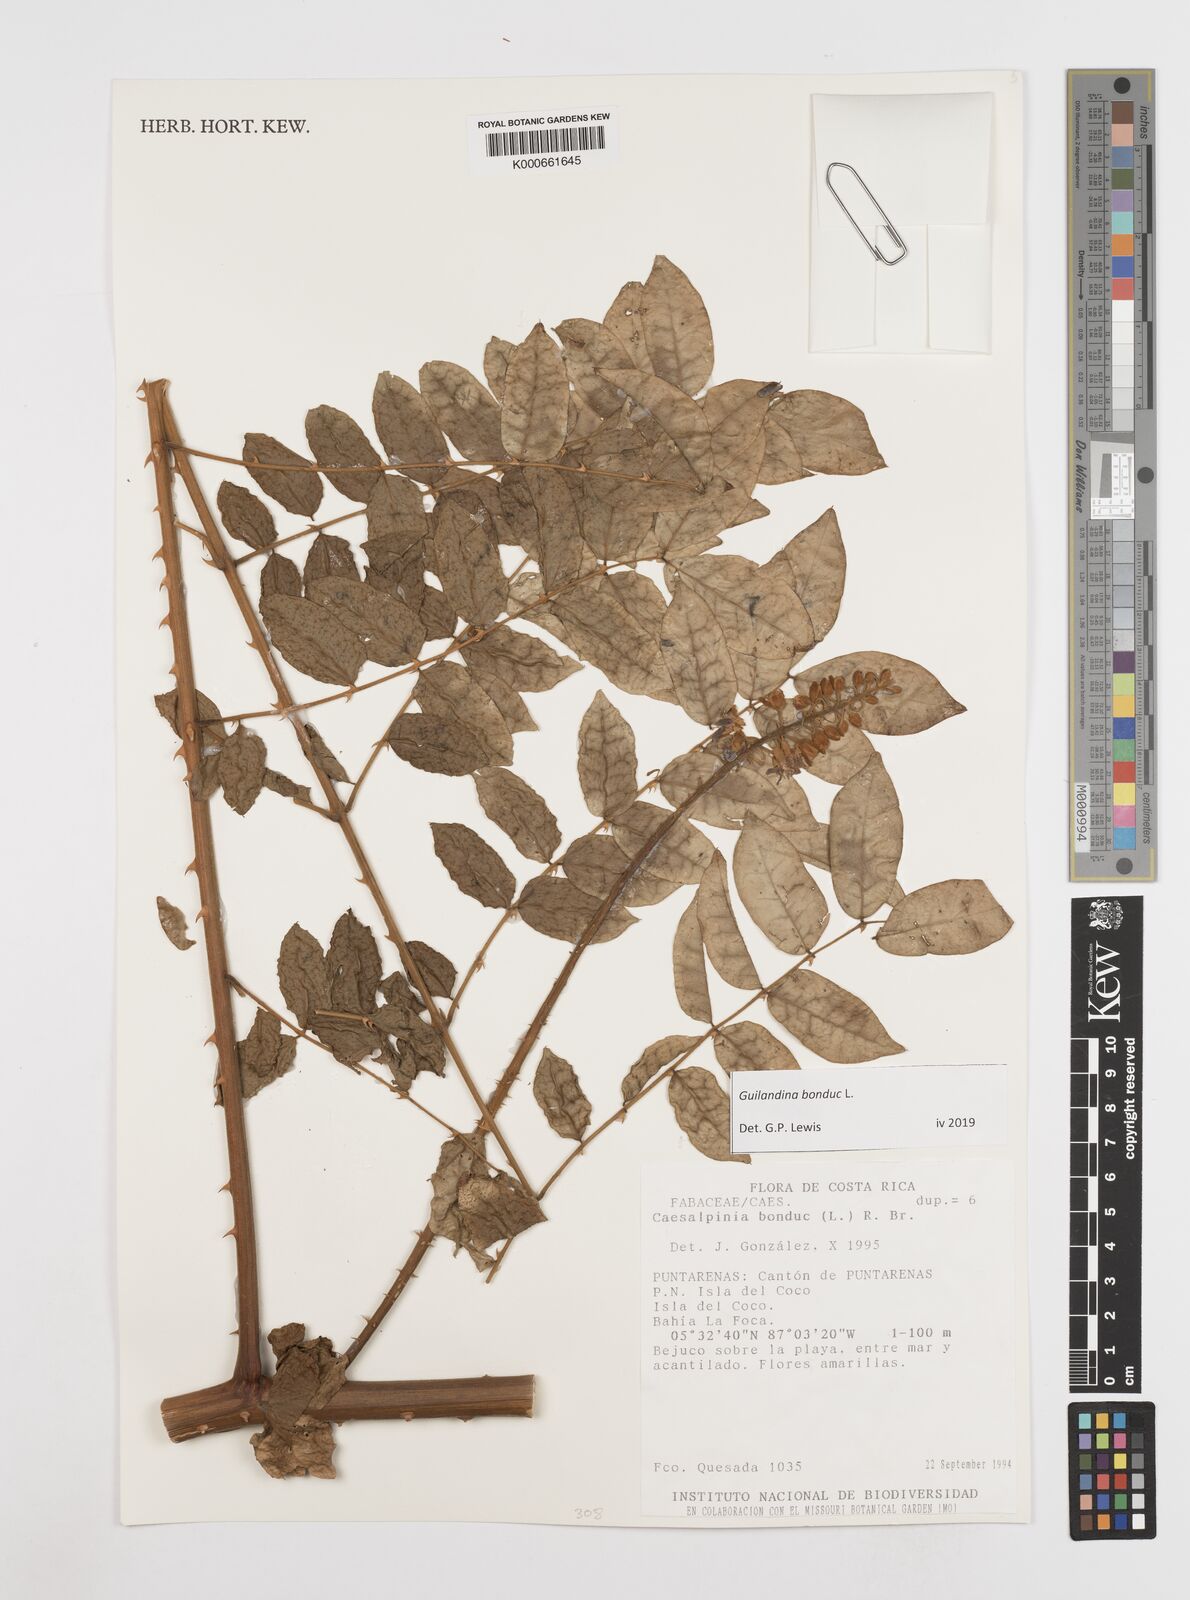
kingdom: Plantae
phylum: Tracheophyta
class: Magnoliopsida
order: Fabales
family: Fabaceae
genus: Guilandina
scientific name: Guilandina bonduc
